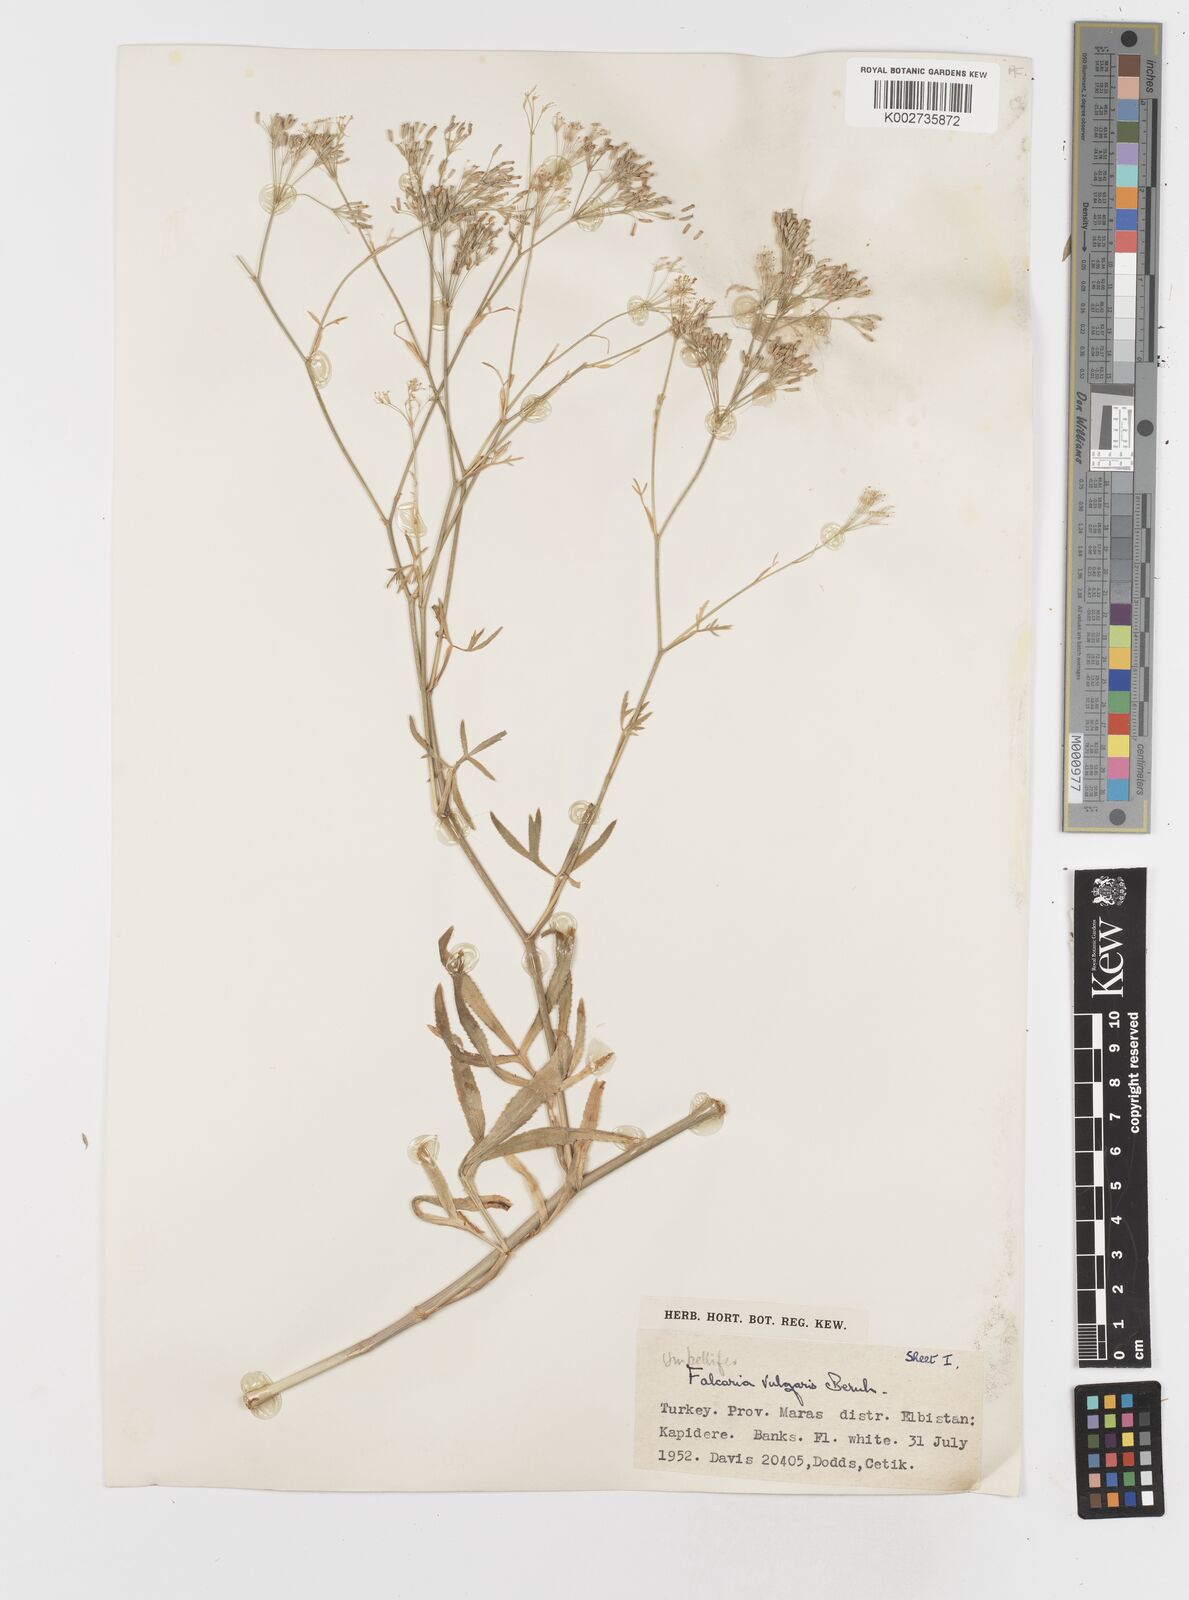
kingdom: Plantae
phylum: Tracheophyta
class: Magnoliopsida
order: Apiales
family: Apiaceae
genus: Falcaria
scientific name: Falcaria vulgaris
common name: Longleaf
